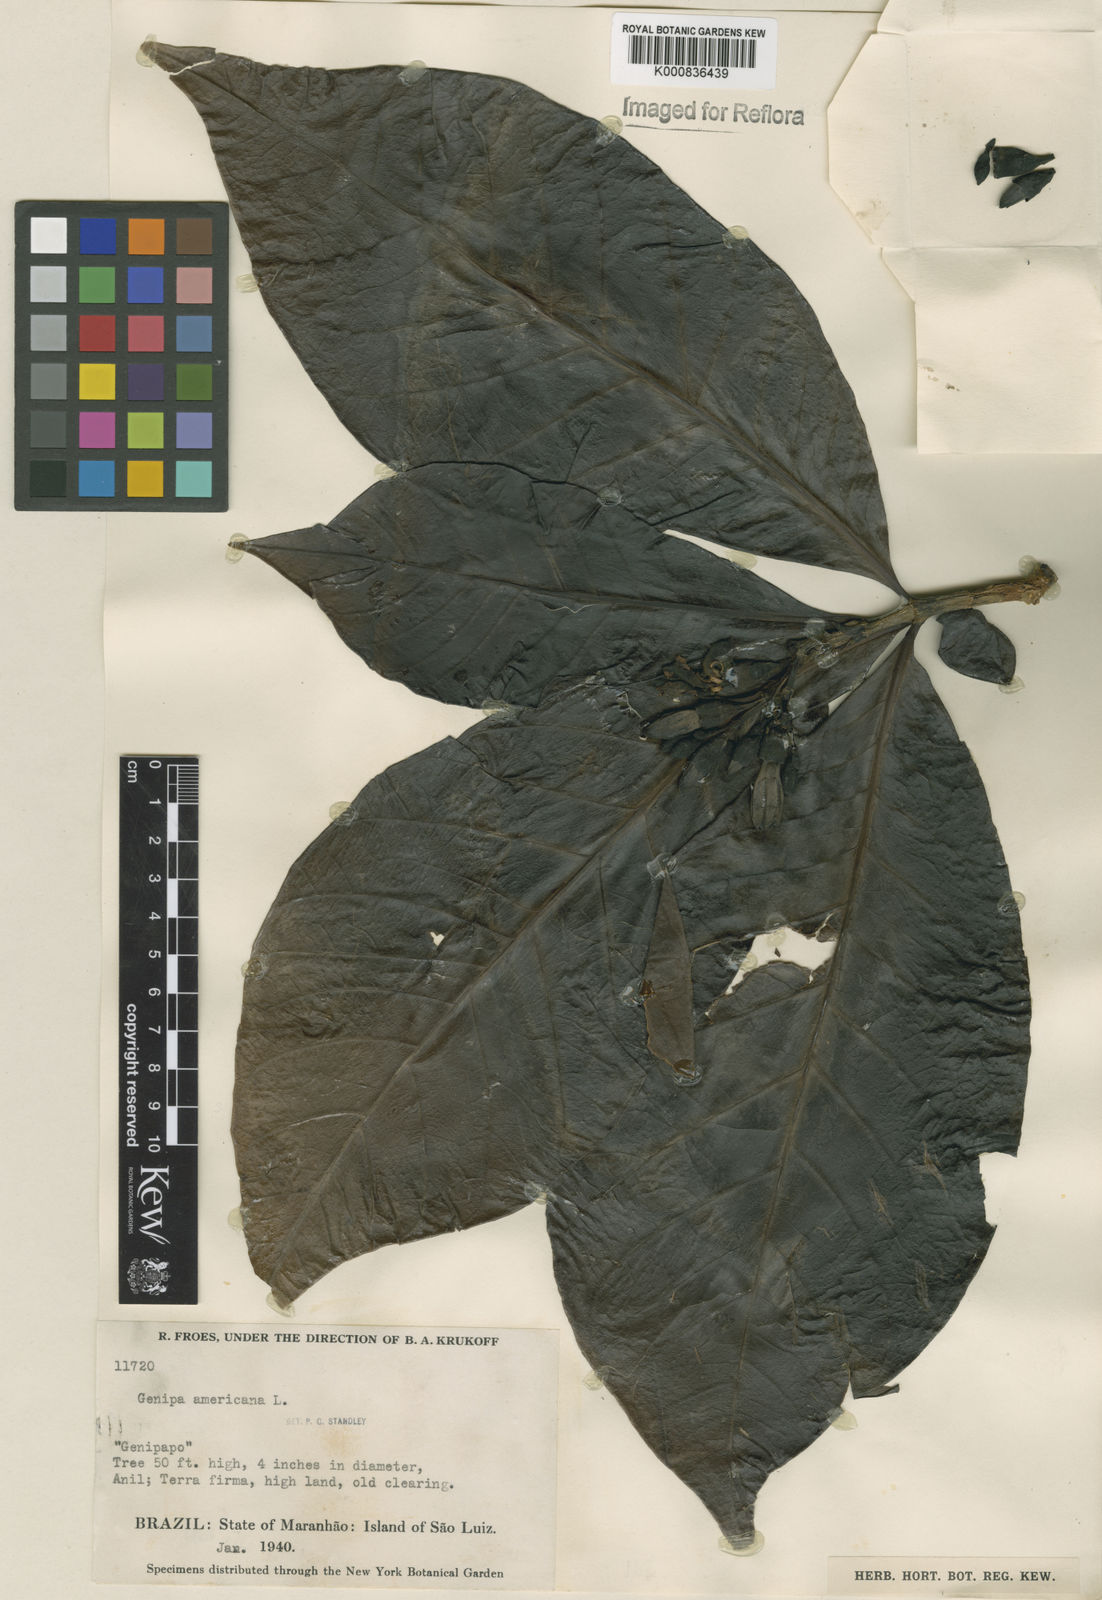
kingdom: Plantae
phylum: Tracheophyta
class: Magnoliopsida
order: Gentianales
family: Rubiaceae
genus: Genipa
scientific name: Genipa americana
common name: Genipap
